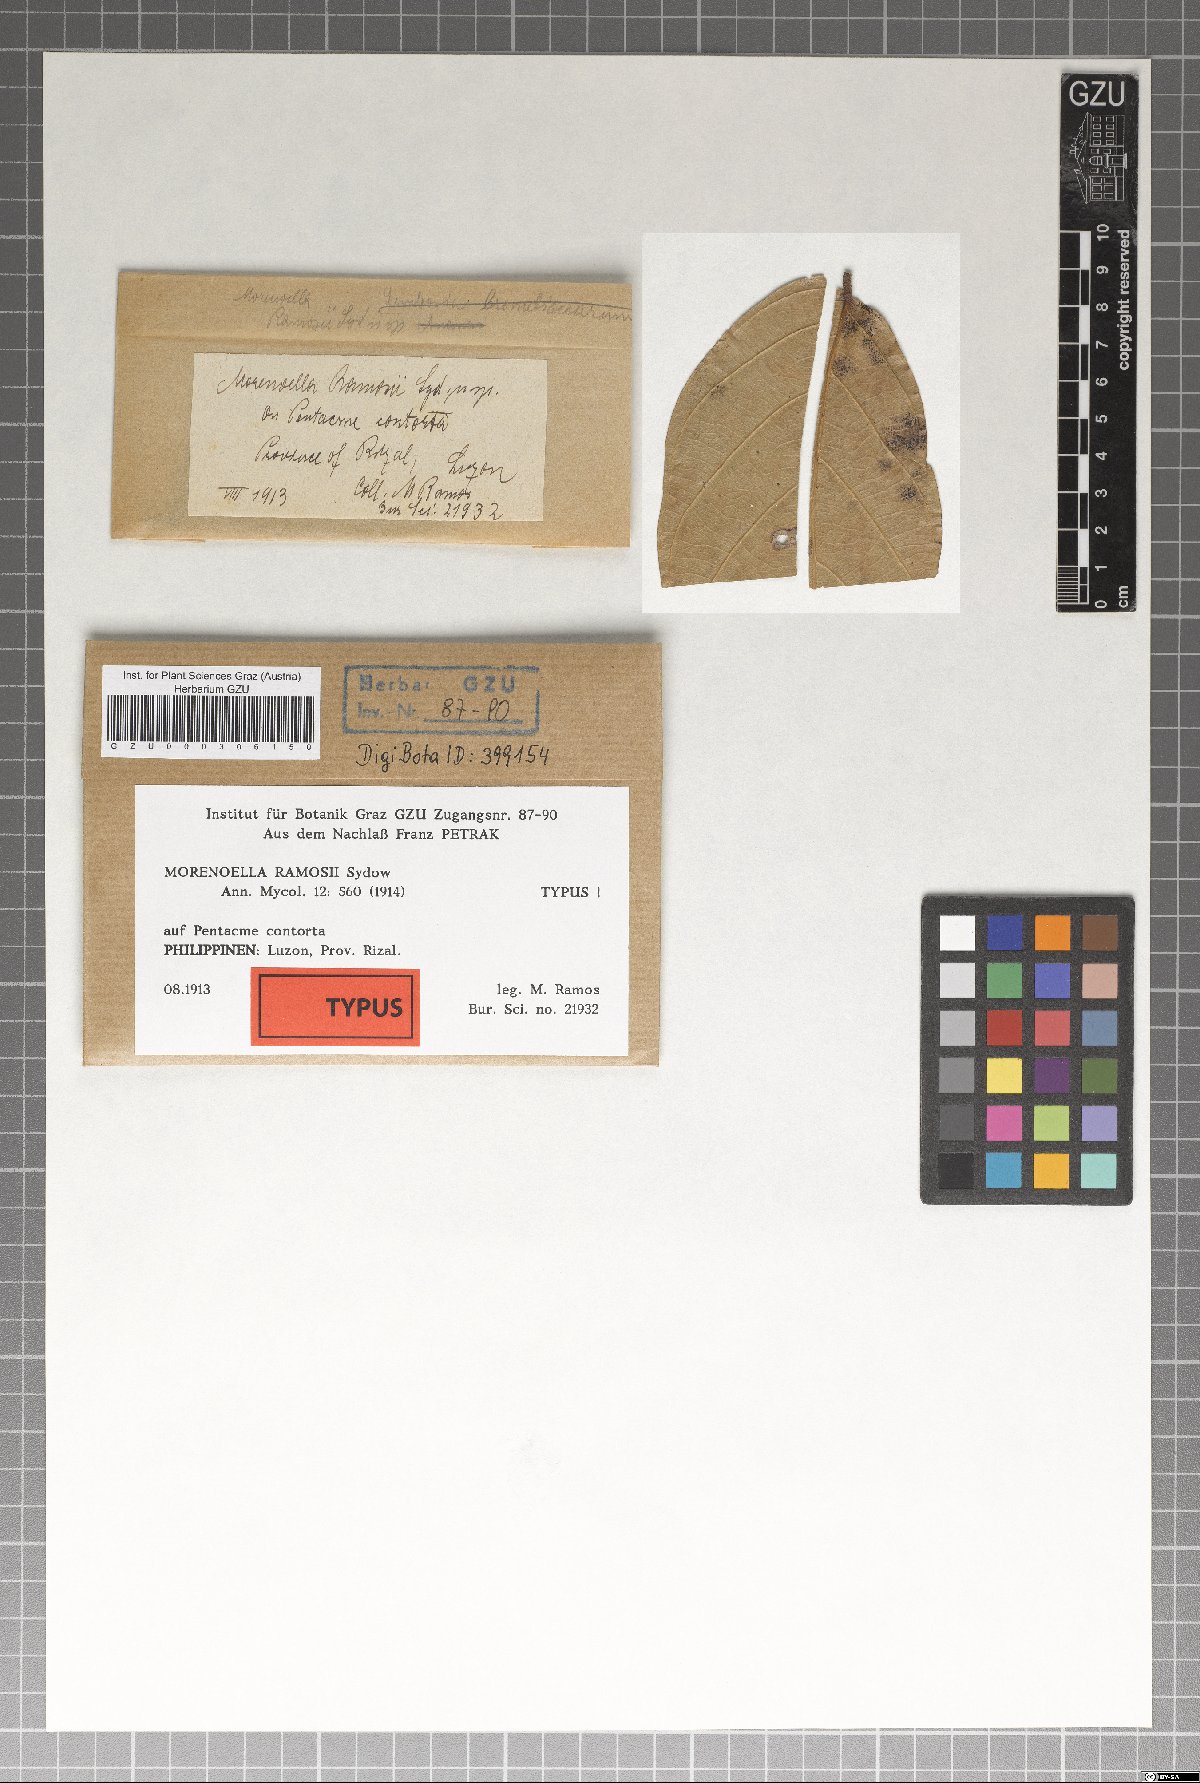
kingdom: Fungi
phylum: Ascomycota
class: Dothideomycetes
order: Asterinales
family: Asterinaceae
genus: Echidnodella
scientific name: Echidnodella ramosii
